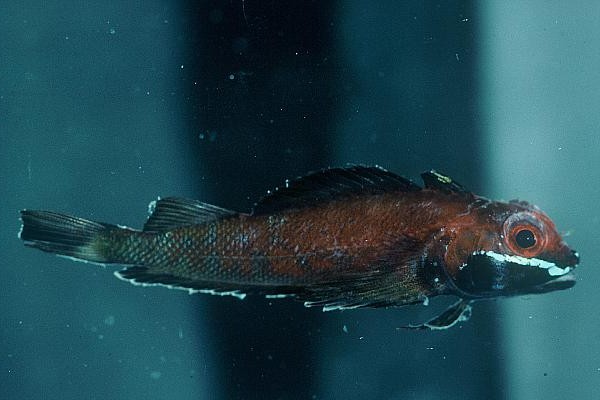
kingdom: Animalia
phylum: Chordata
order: Perciformes
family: Tripterygiidae
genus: Helcogramma
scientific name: Helcogramma fuscopinna
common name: Blackfin triplefin
